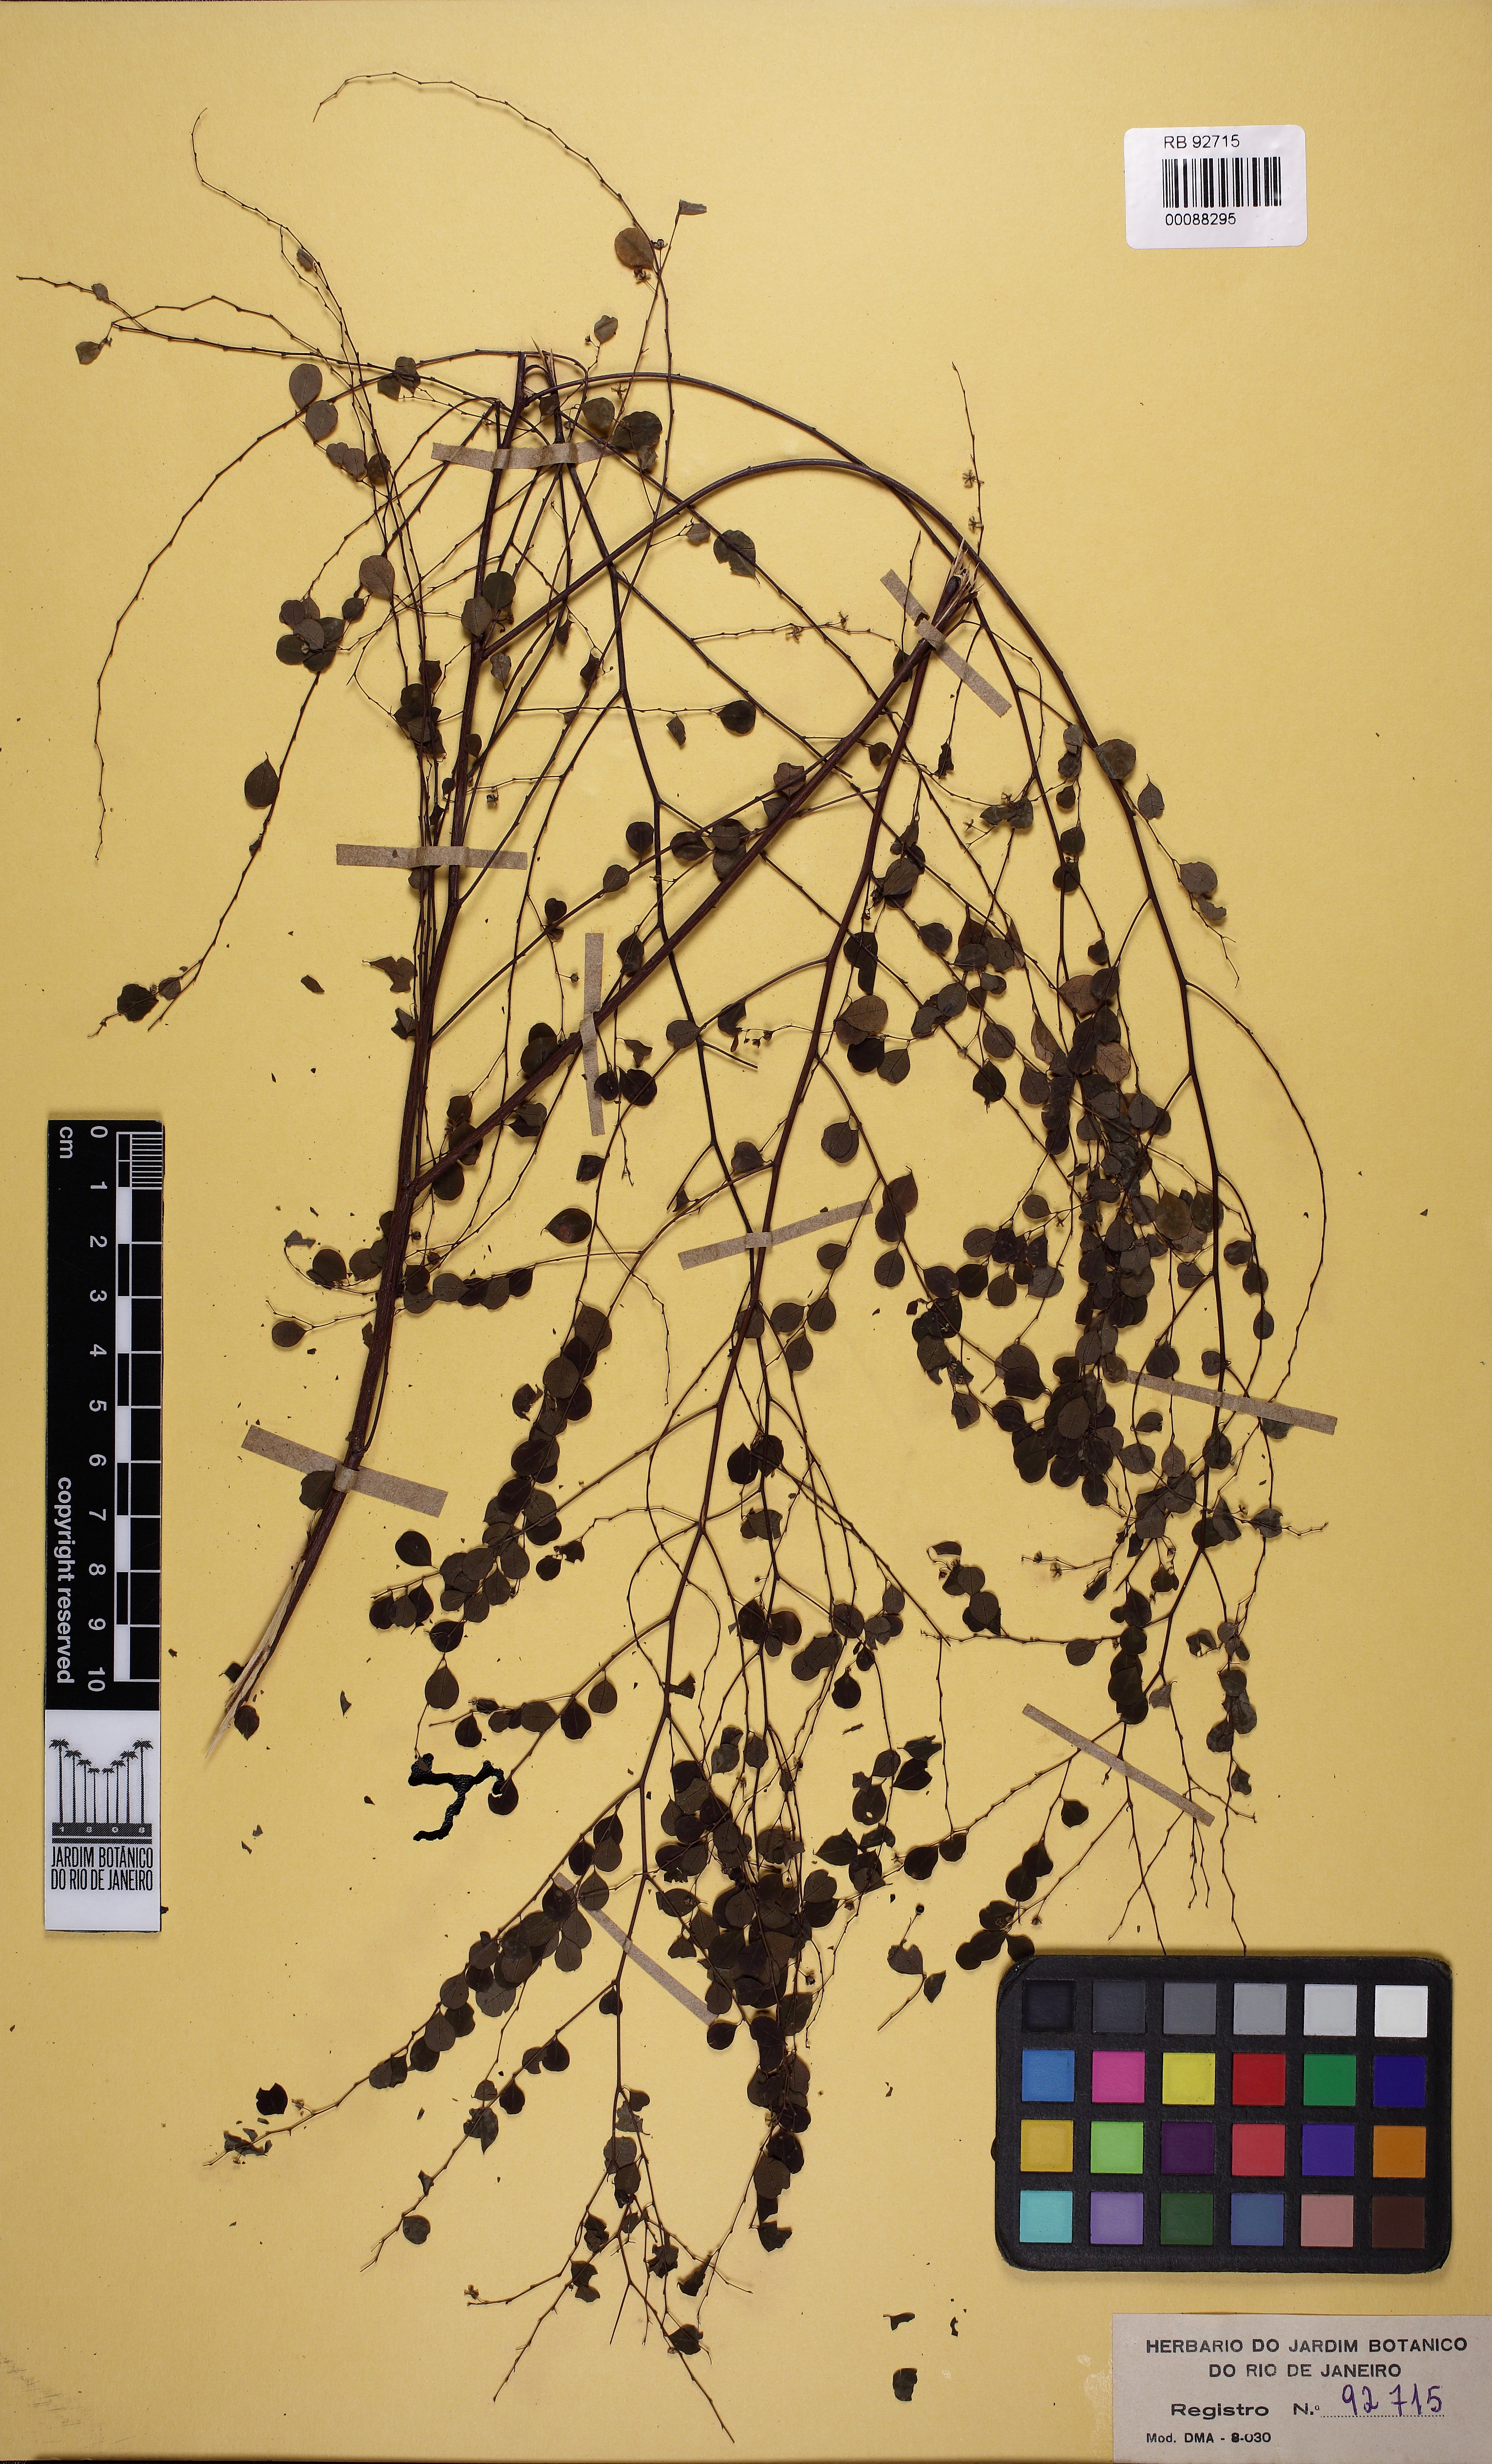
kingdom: Plantae
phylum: Tracheophyta
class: Magnoliopsida
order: Malpighiales
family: Phyllanthaceae
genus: Phyllanthus
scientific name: Phyllanthus subemarginatus
